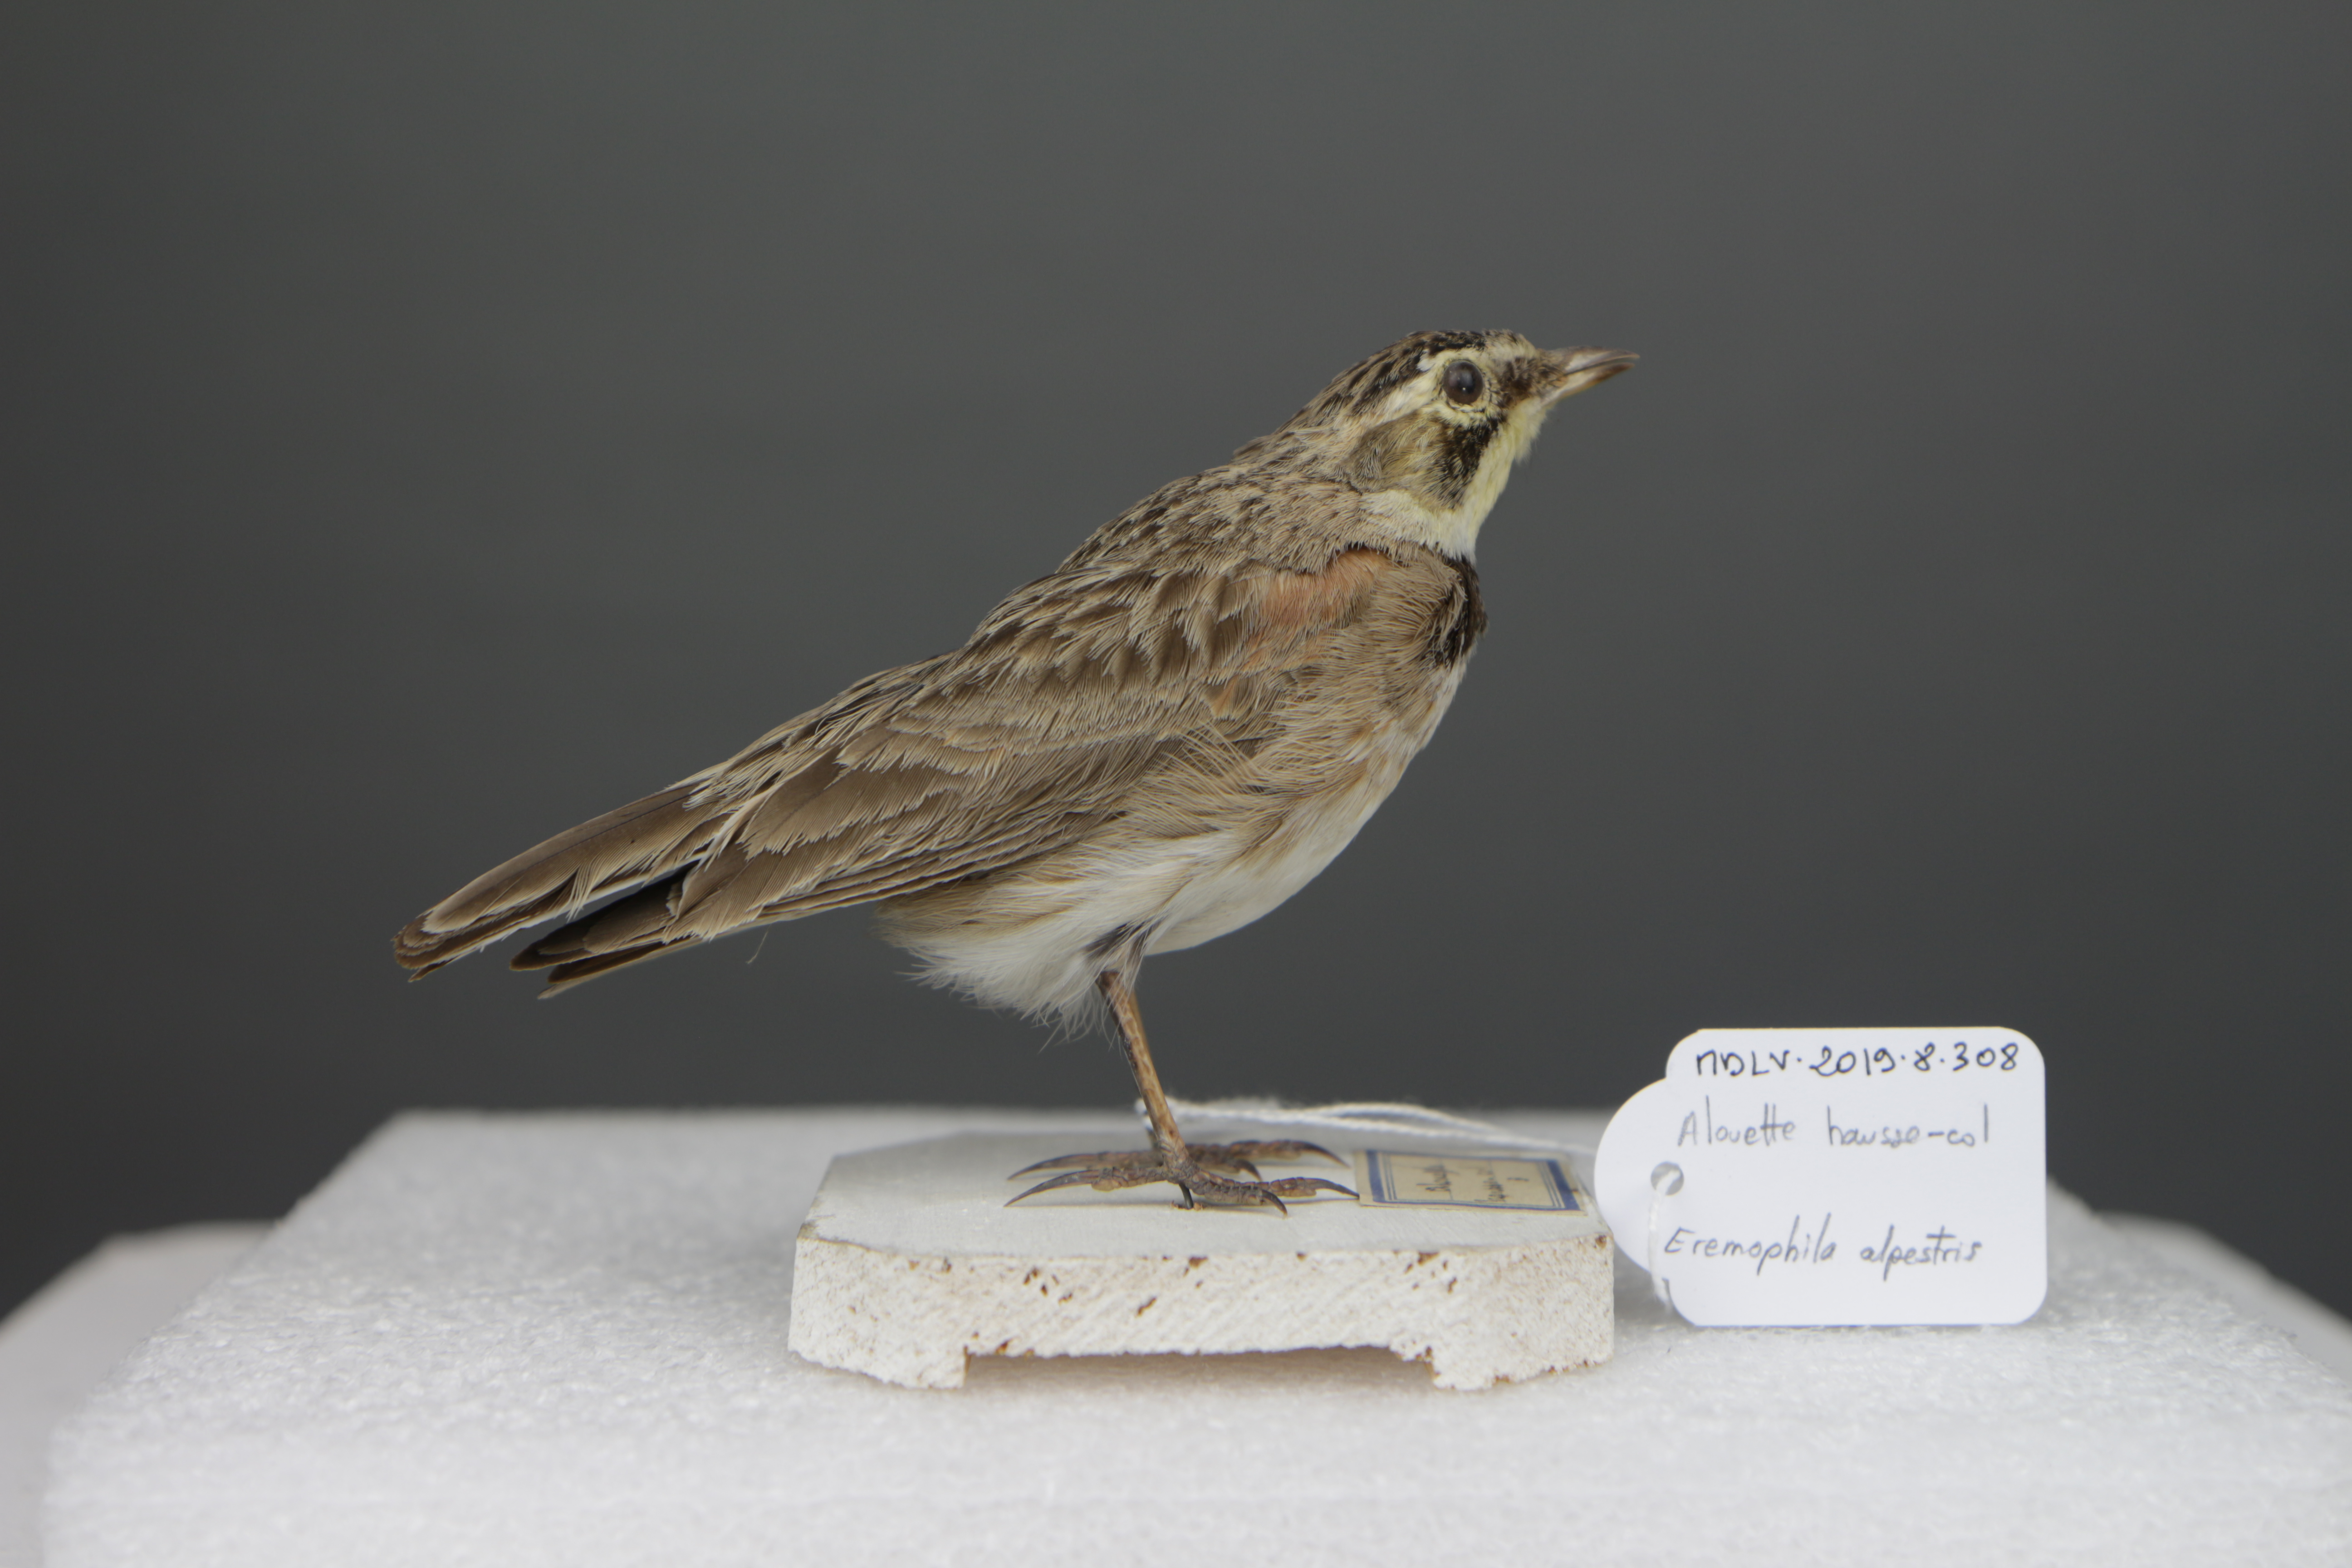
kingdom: Animalia
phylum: Chordata
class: Aves
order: Passeriformes
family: Alaudidae
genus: Eremophila
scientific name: Eremophila alpestris
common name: Horned lark
